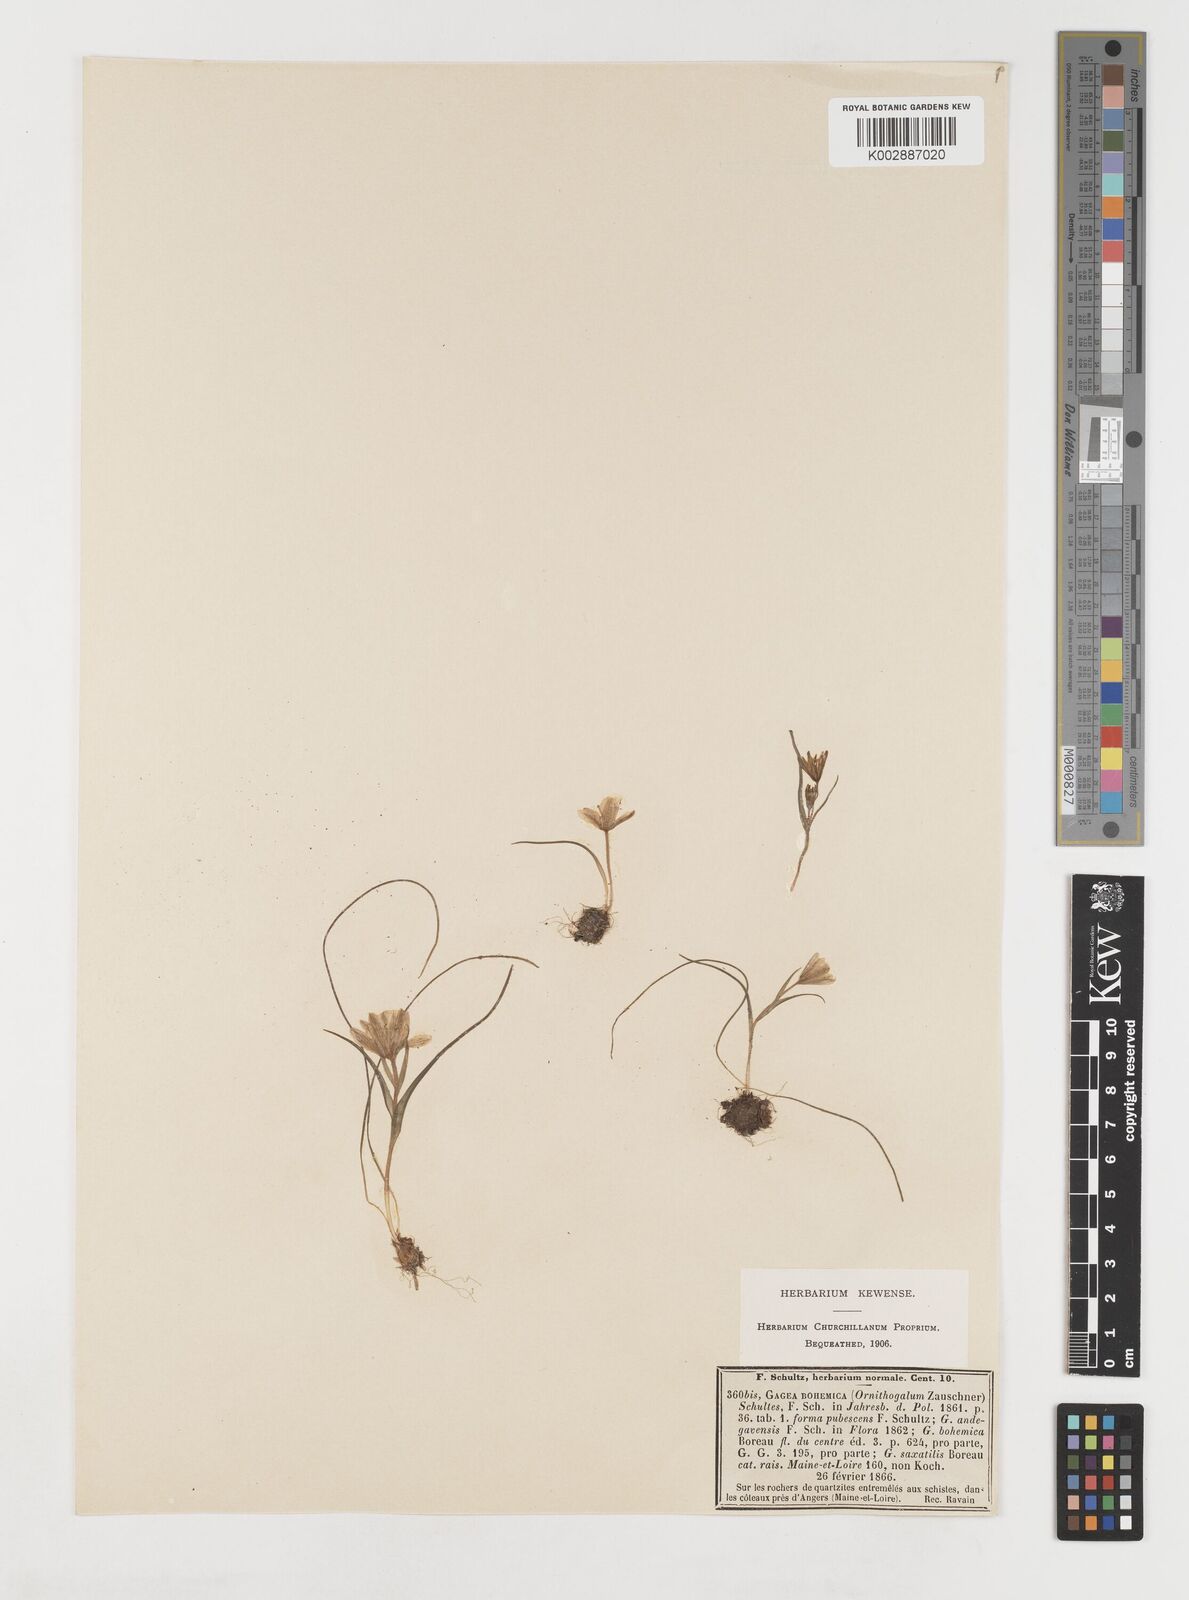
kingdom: Plantae
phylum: Tracheophyta
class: Liliopsida
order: Liliales
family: Liliaceae
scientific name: Liliaceae
